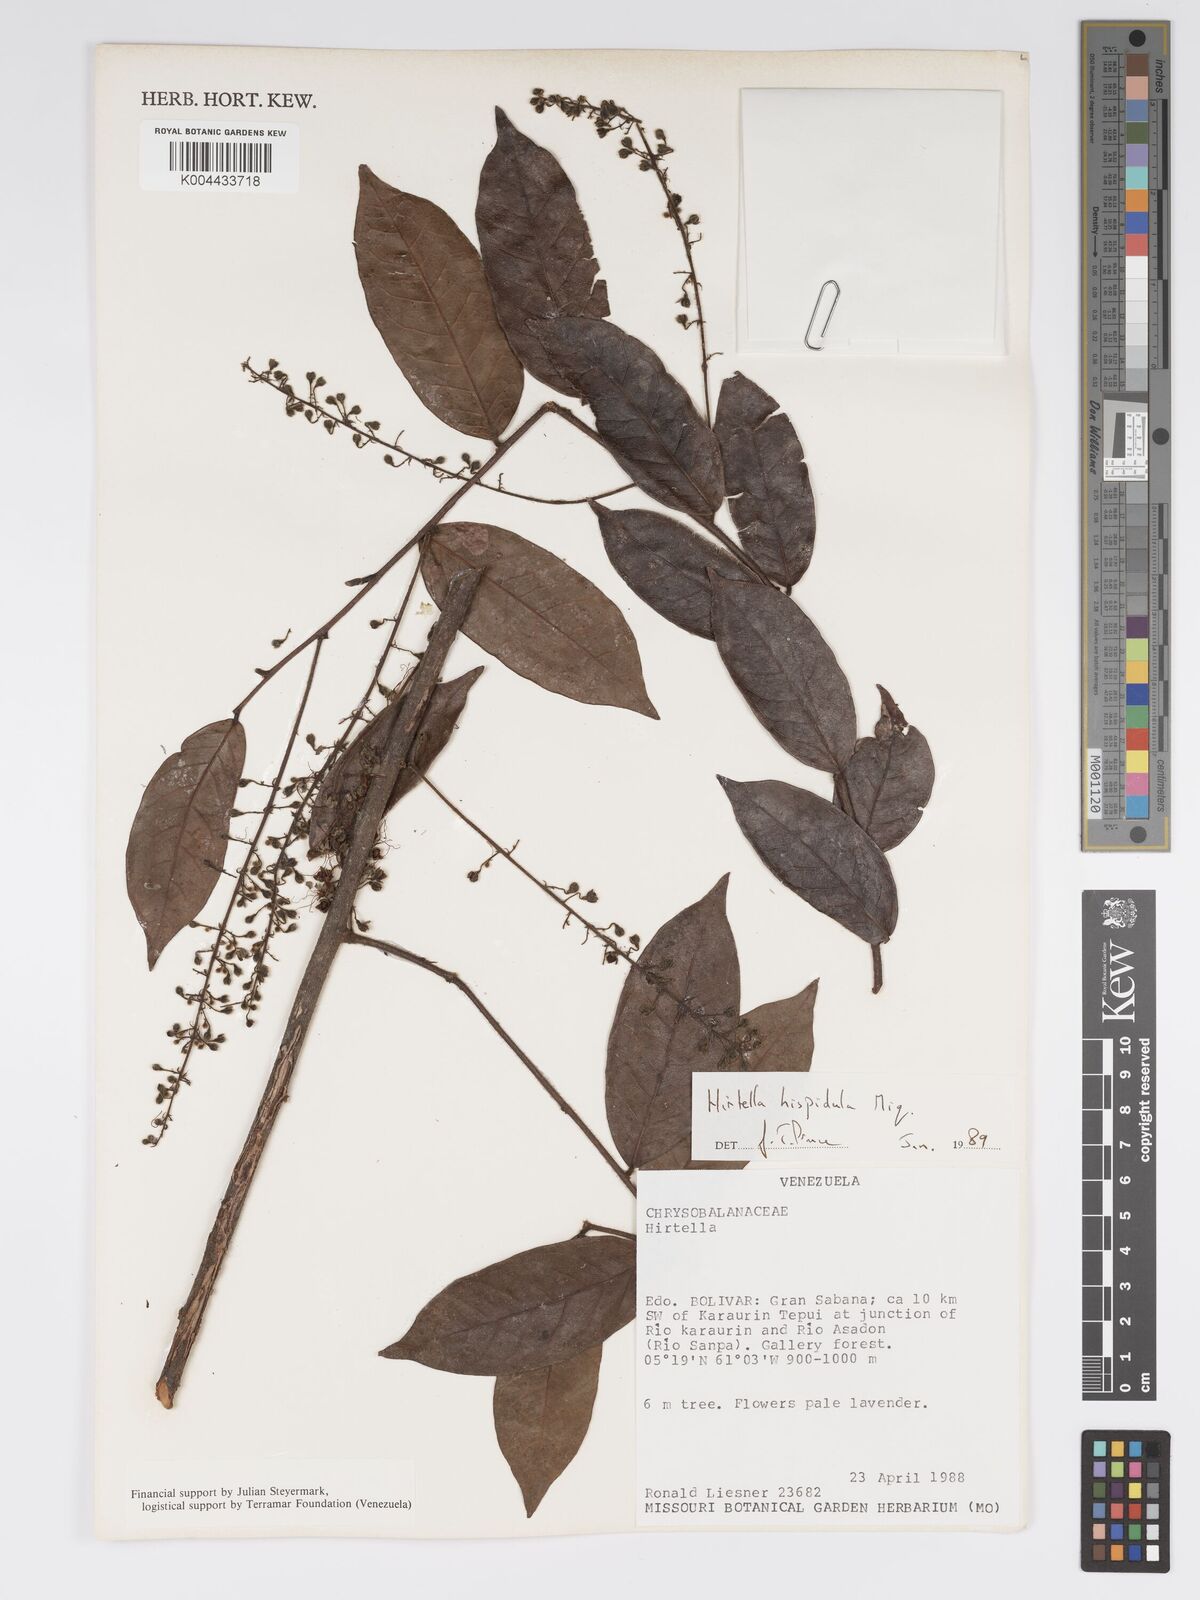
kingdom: Plantae
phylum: Tracheophyta
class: Magnoliopsida
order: Malpighiales
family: Chrysobalanaceae
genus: Hirtella
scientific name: Hirtella hispidula
